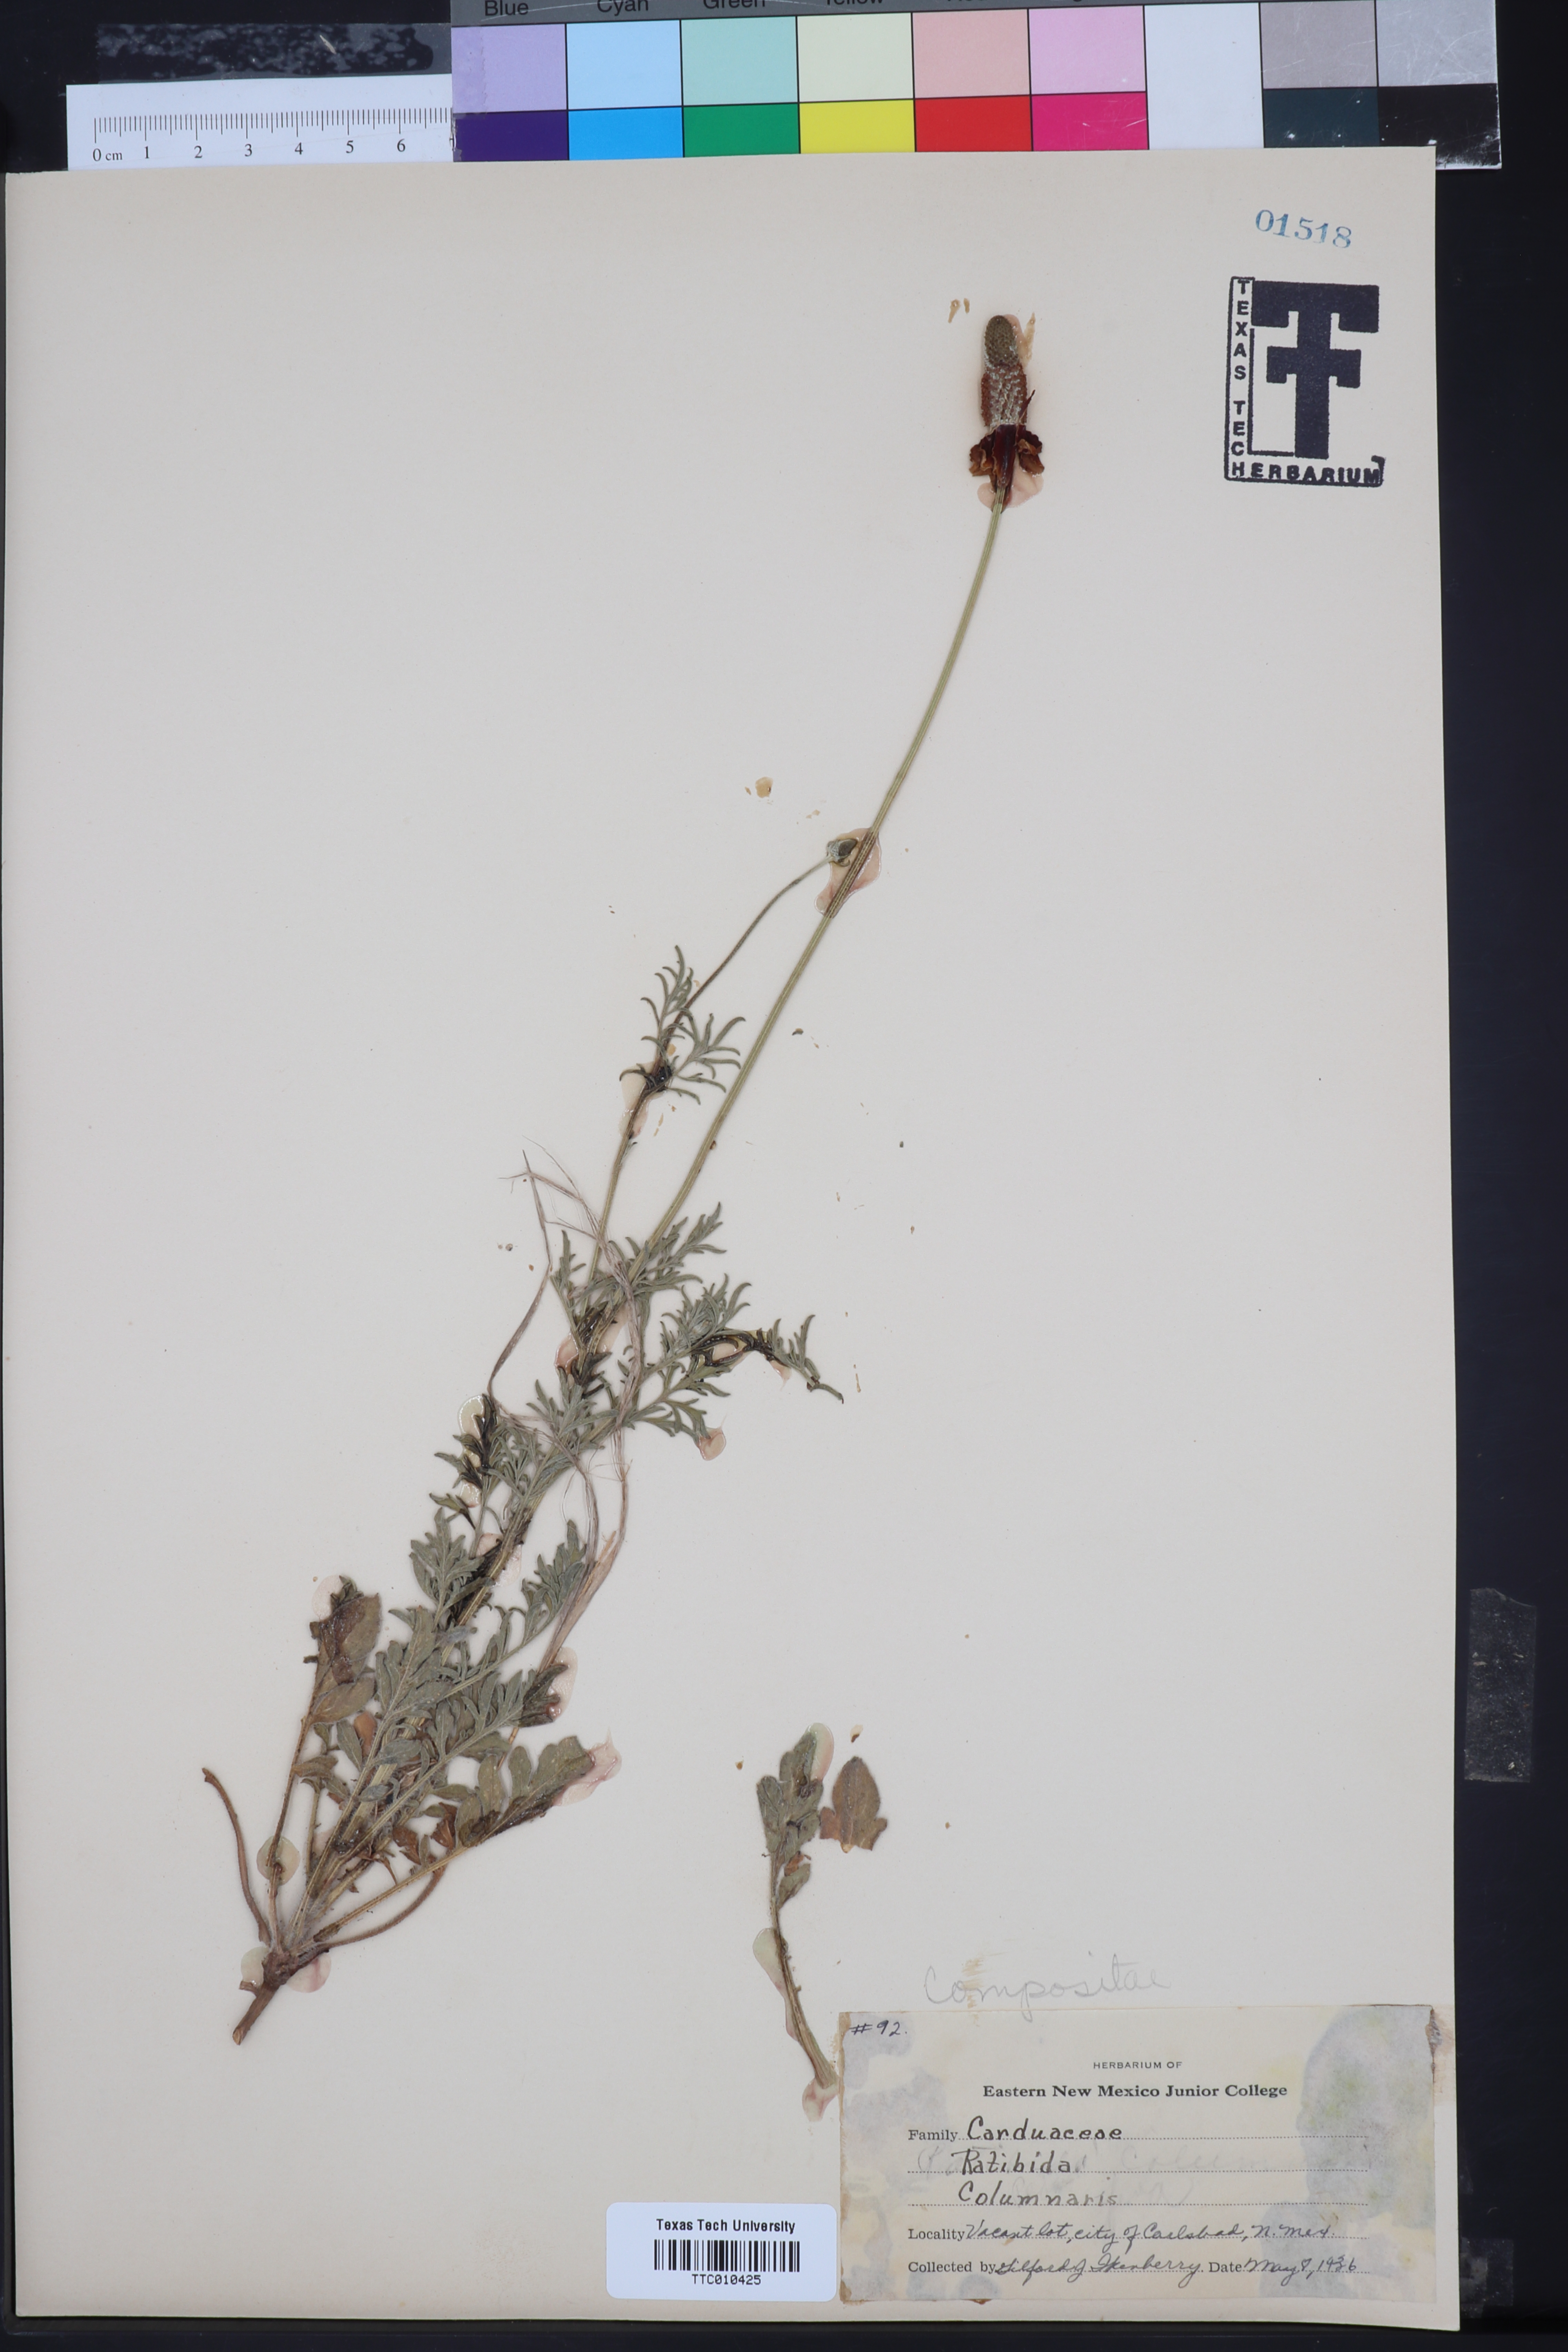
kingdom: Plantae
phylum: Tracheophyta
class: Magnoliopsida
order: Asterales
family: Asteraceae
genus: Ratibida
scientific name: Ratibida columnifera
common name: Prairie coneflower
